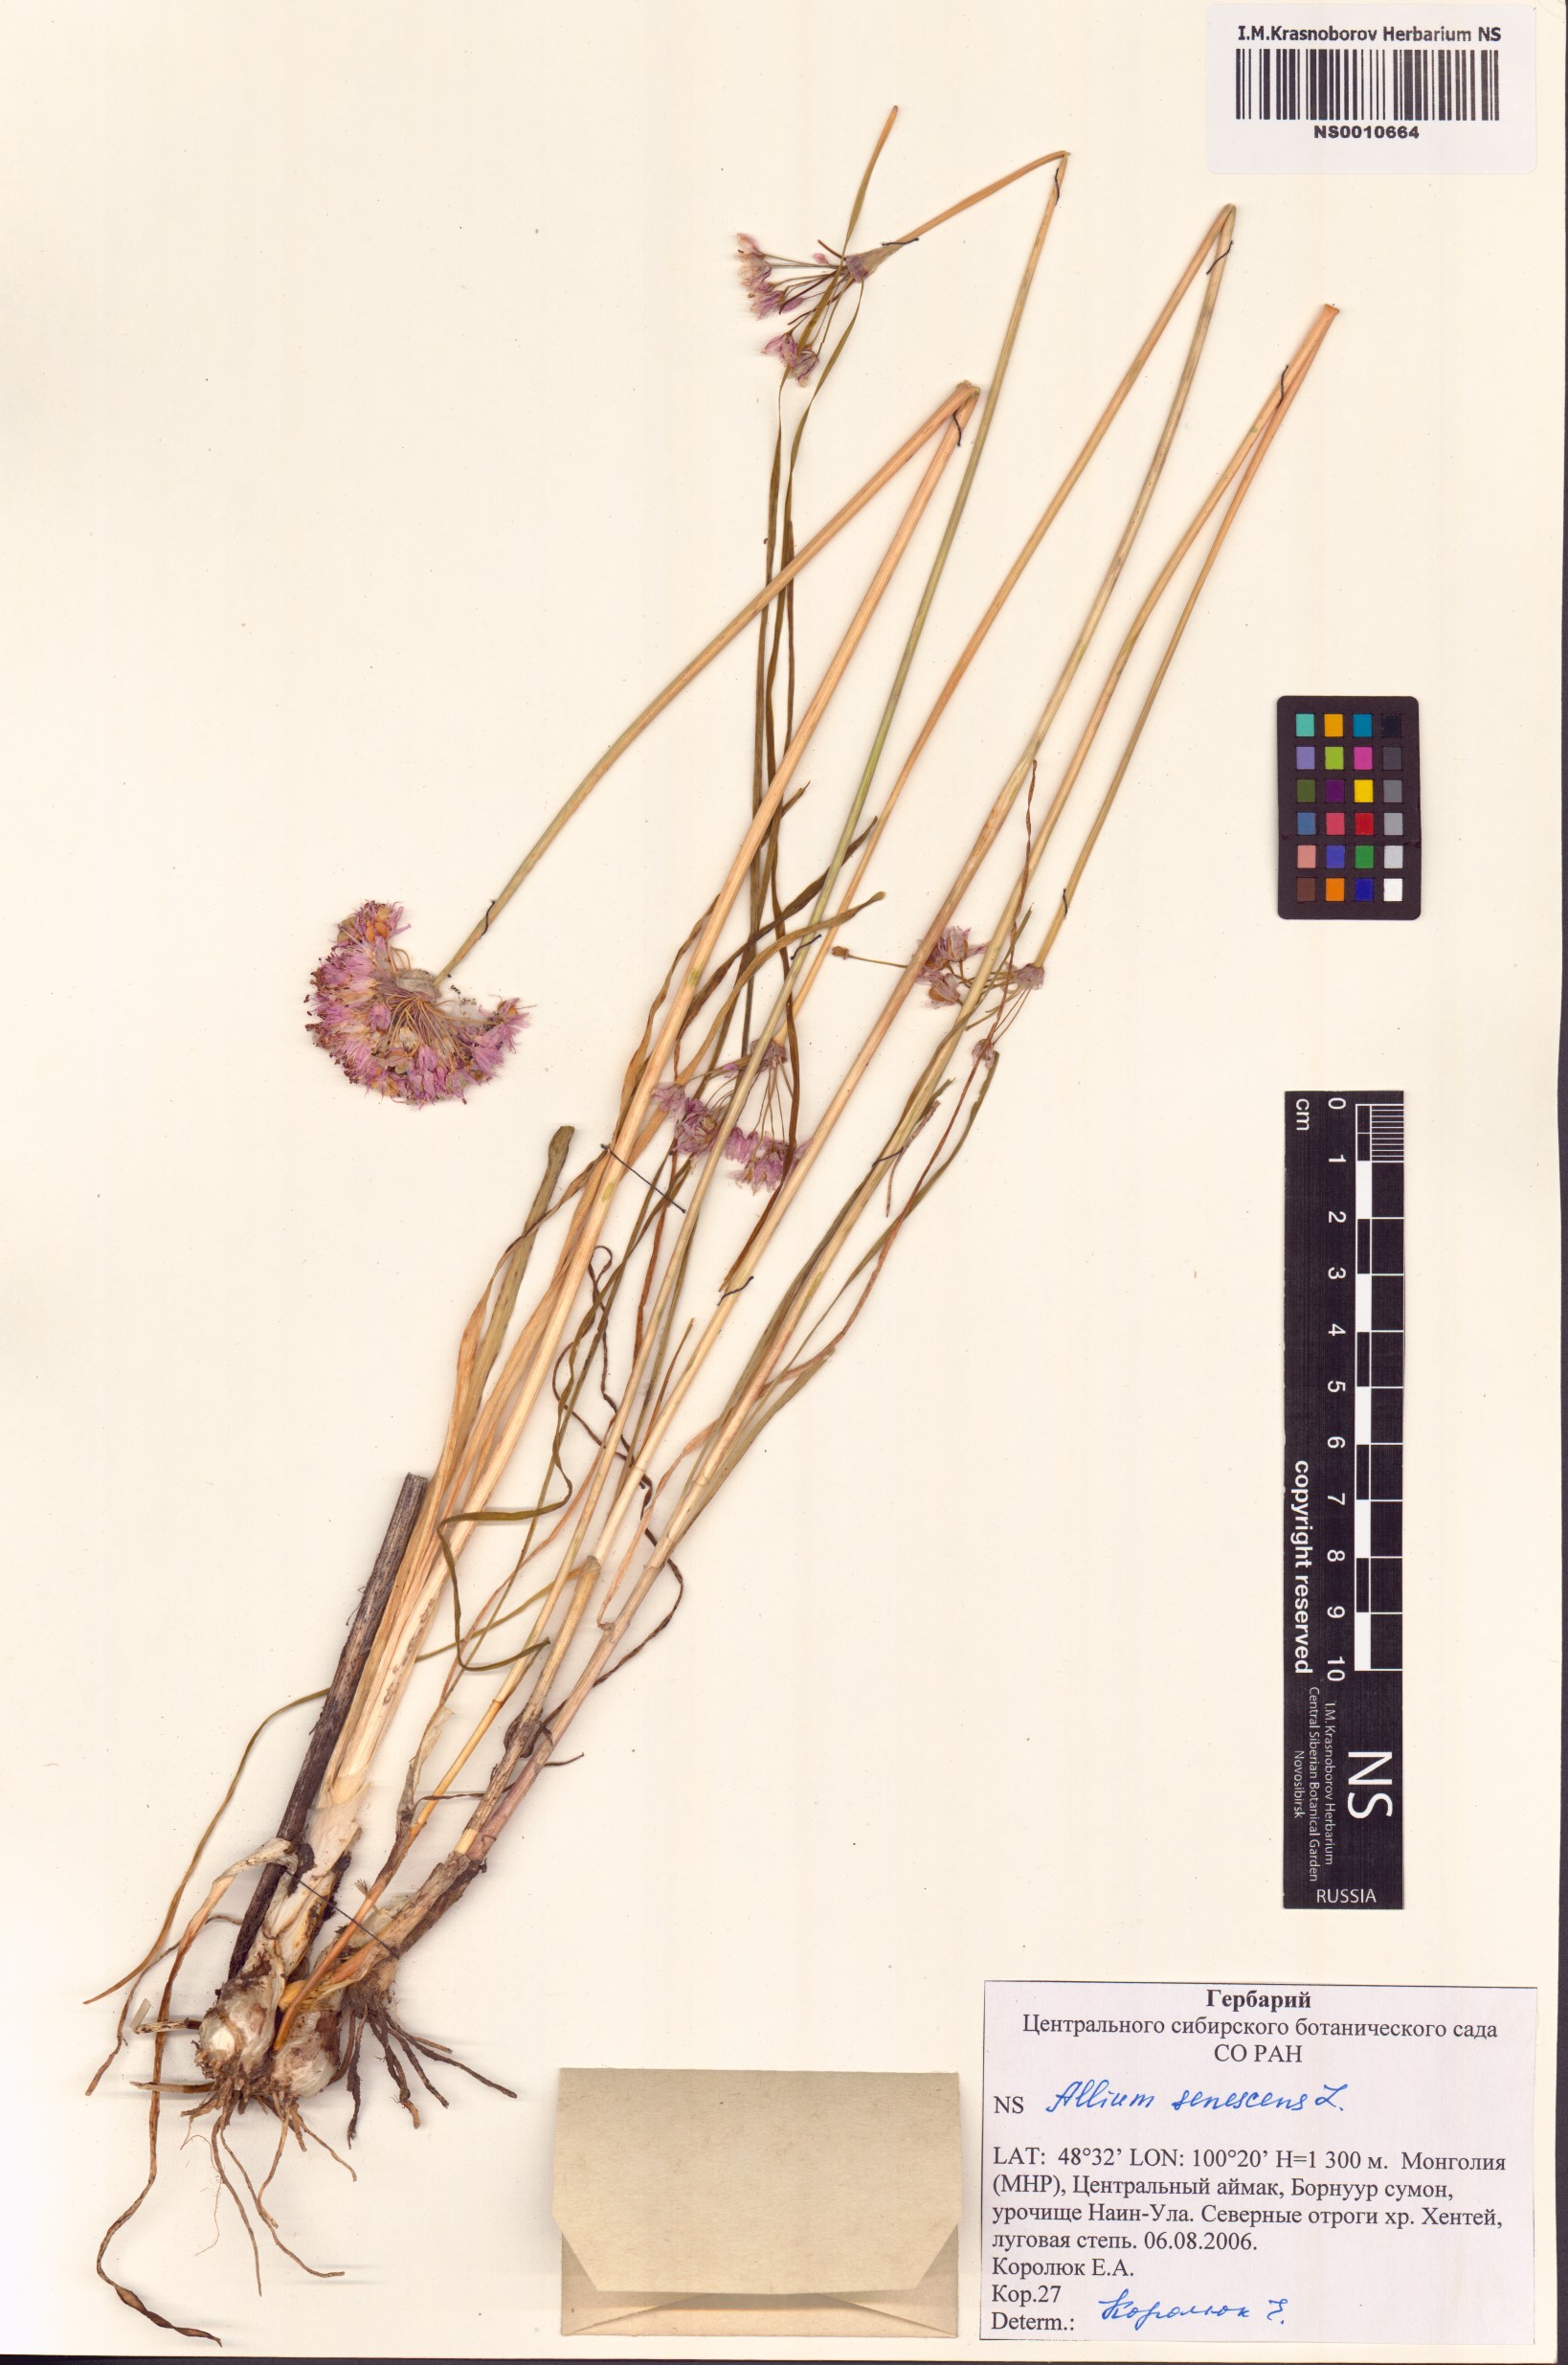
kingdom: Plantae
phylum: Tracheophyta
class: Liliopsida
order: Asparagales
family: Amaryllidaceae
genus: Allium
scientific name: Allium senescens
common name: German garlic
